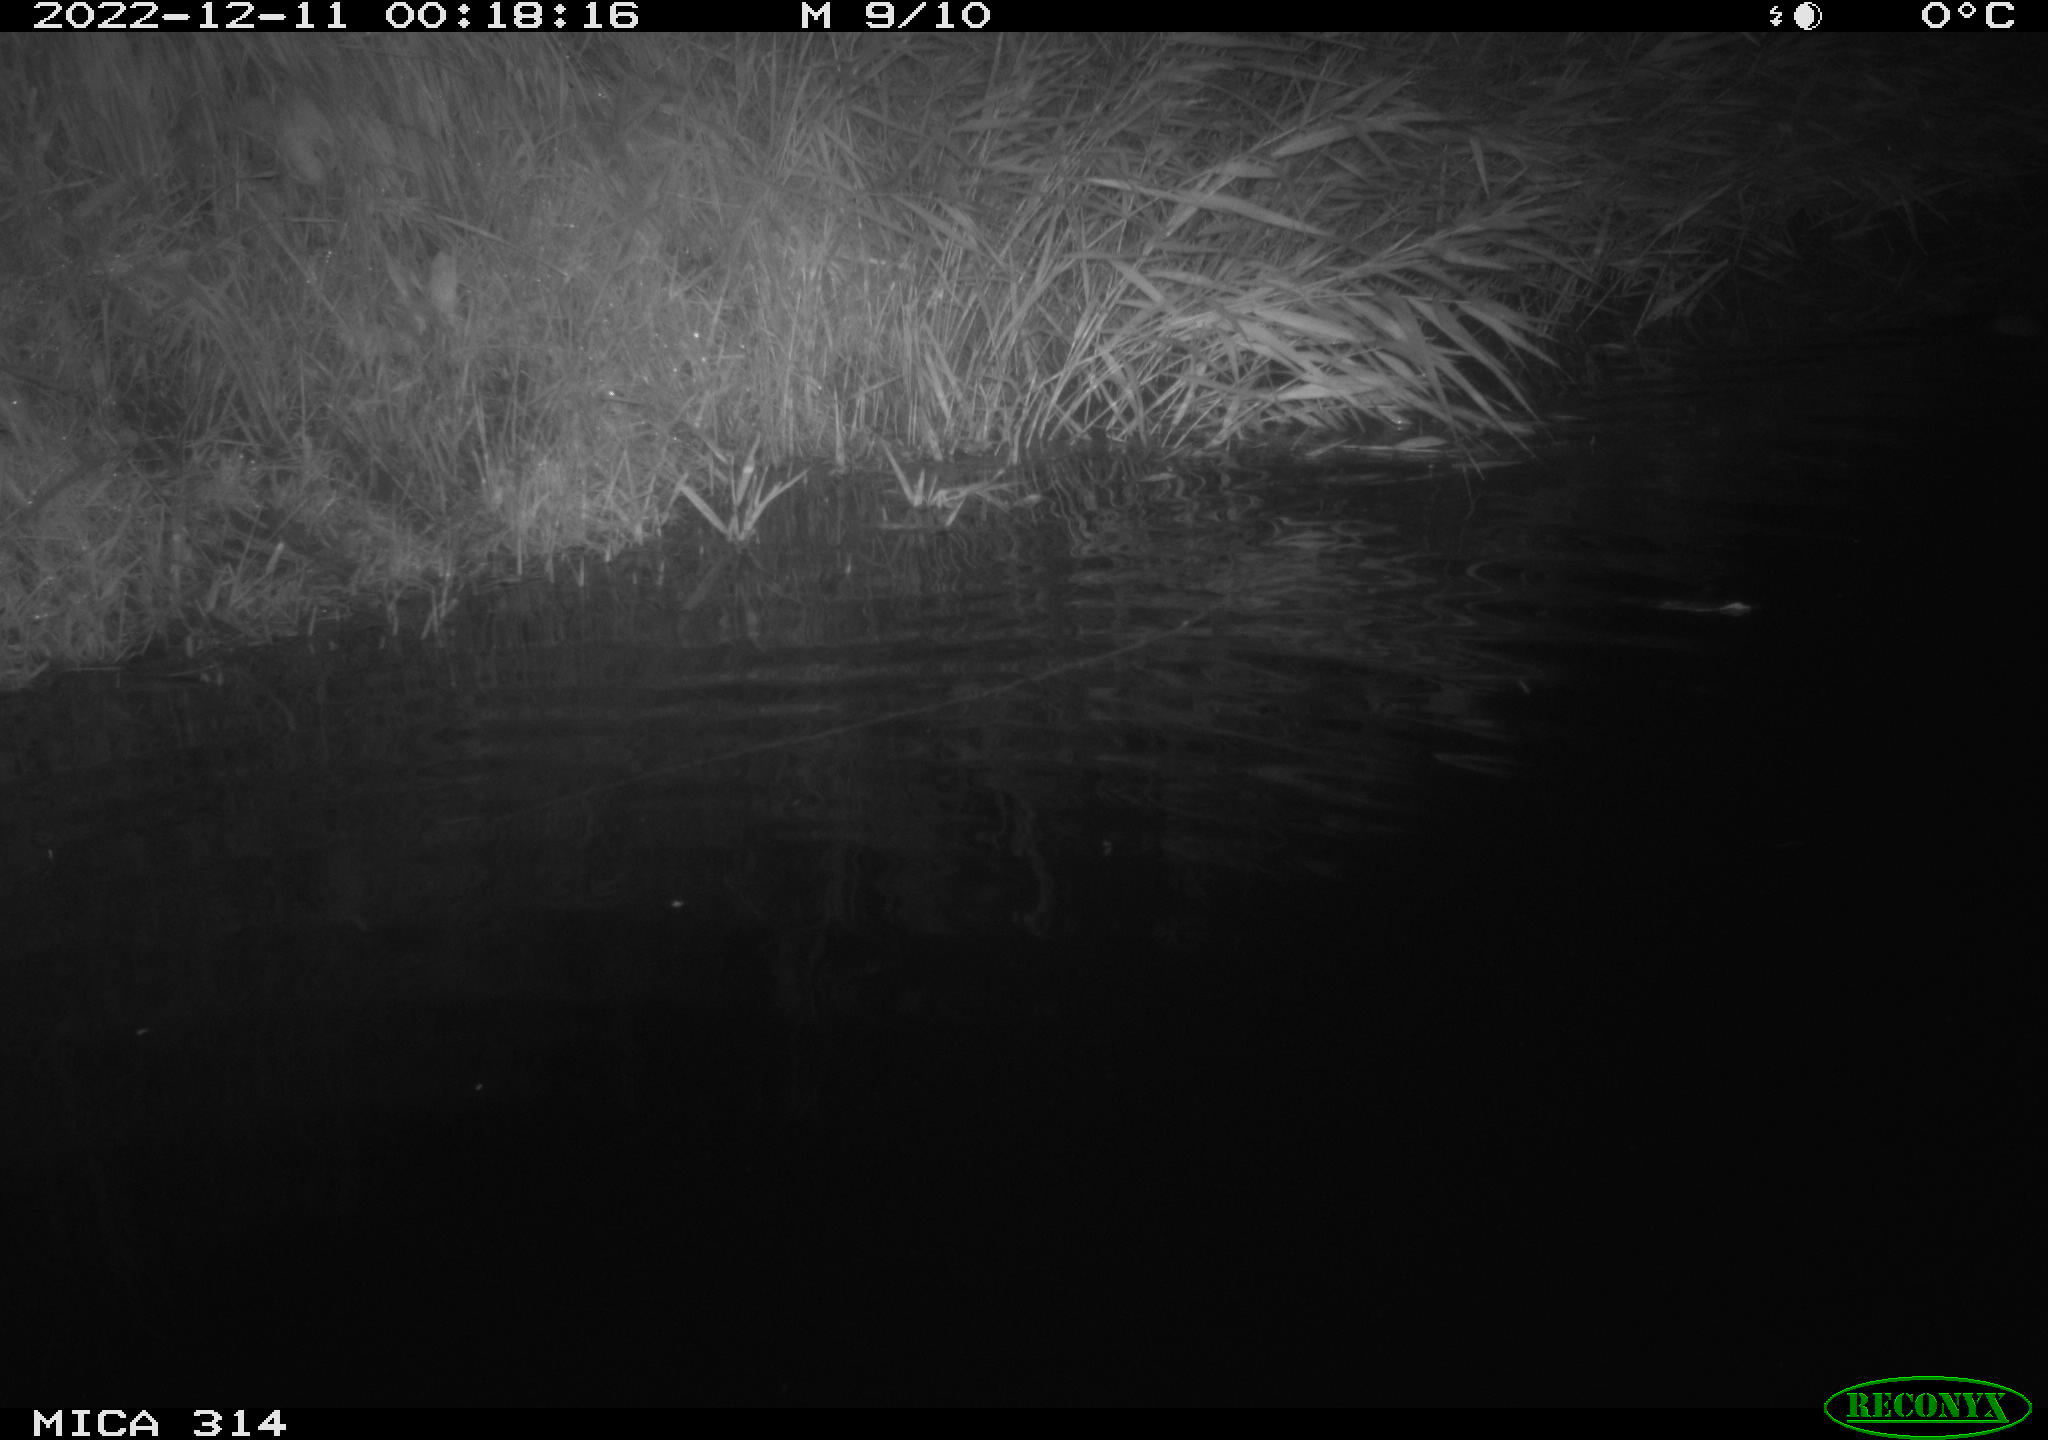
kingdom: Animalia
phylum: Chordata
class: Mammalia
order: Rodentia
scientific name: Rodentia
